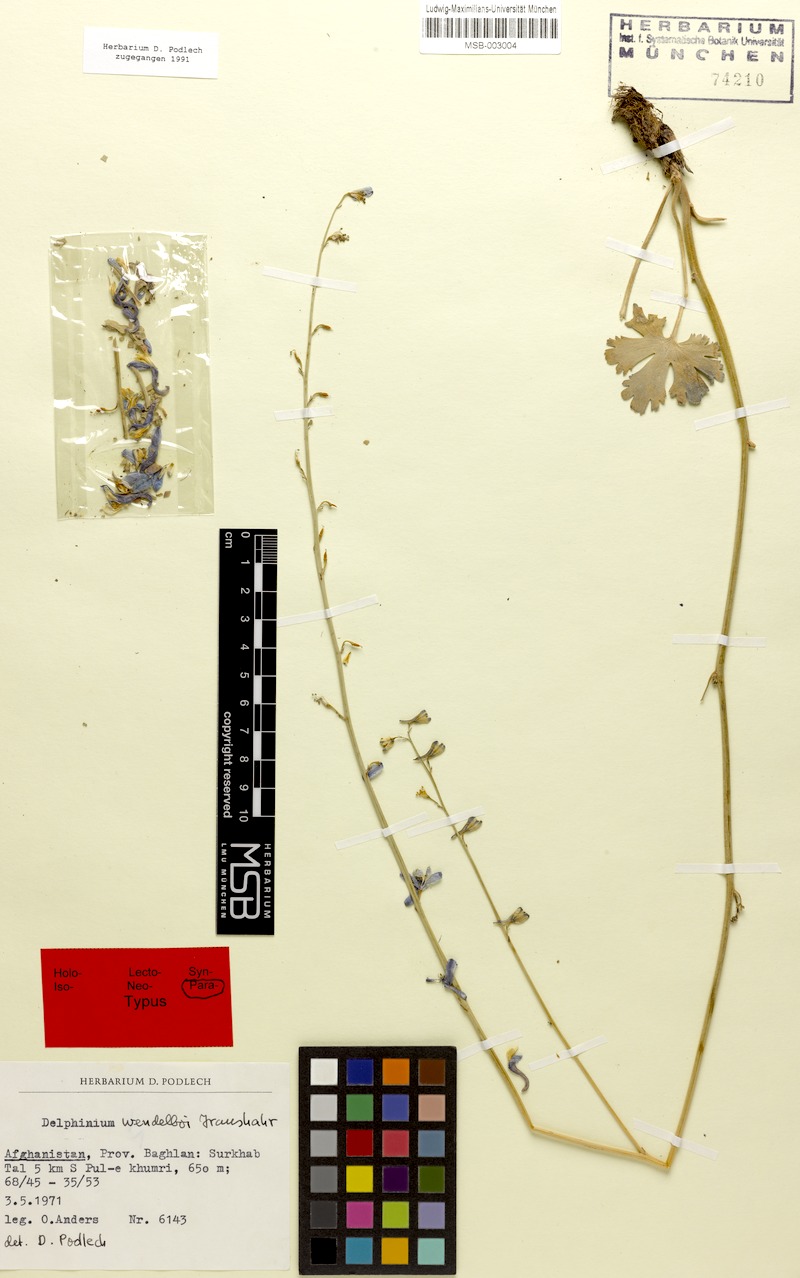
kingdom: Plantae
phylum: Tracheophyta
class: Magnoliopsida
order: Ranunculales
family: Ranunculaceae
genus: Delphinium
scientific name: Delphinium wendelboi
